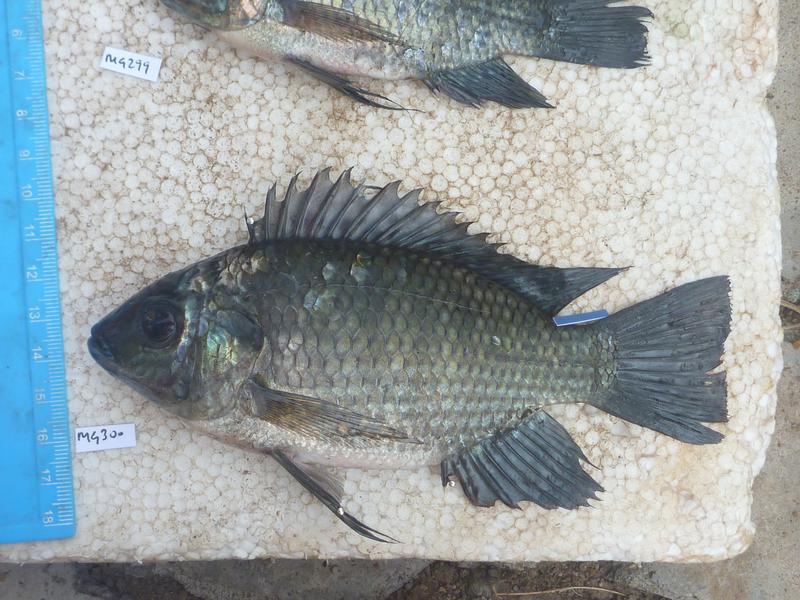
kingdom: Animalia
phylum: Chordata
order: Perciformes
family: Cichlidae
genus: Oreochromis
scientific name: Oreochromis leucostictus
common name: Blue spotted tilapia
